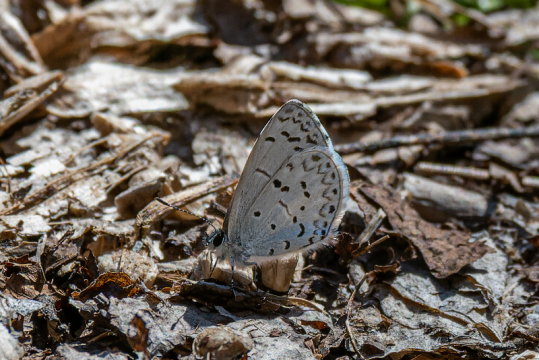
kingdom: Animalia
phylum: Arthropoda
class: Insecta
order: Lepidoptera
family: Lycaenidae
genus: Celastrina
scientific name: Celastrina ladon
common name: Spring Azure
